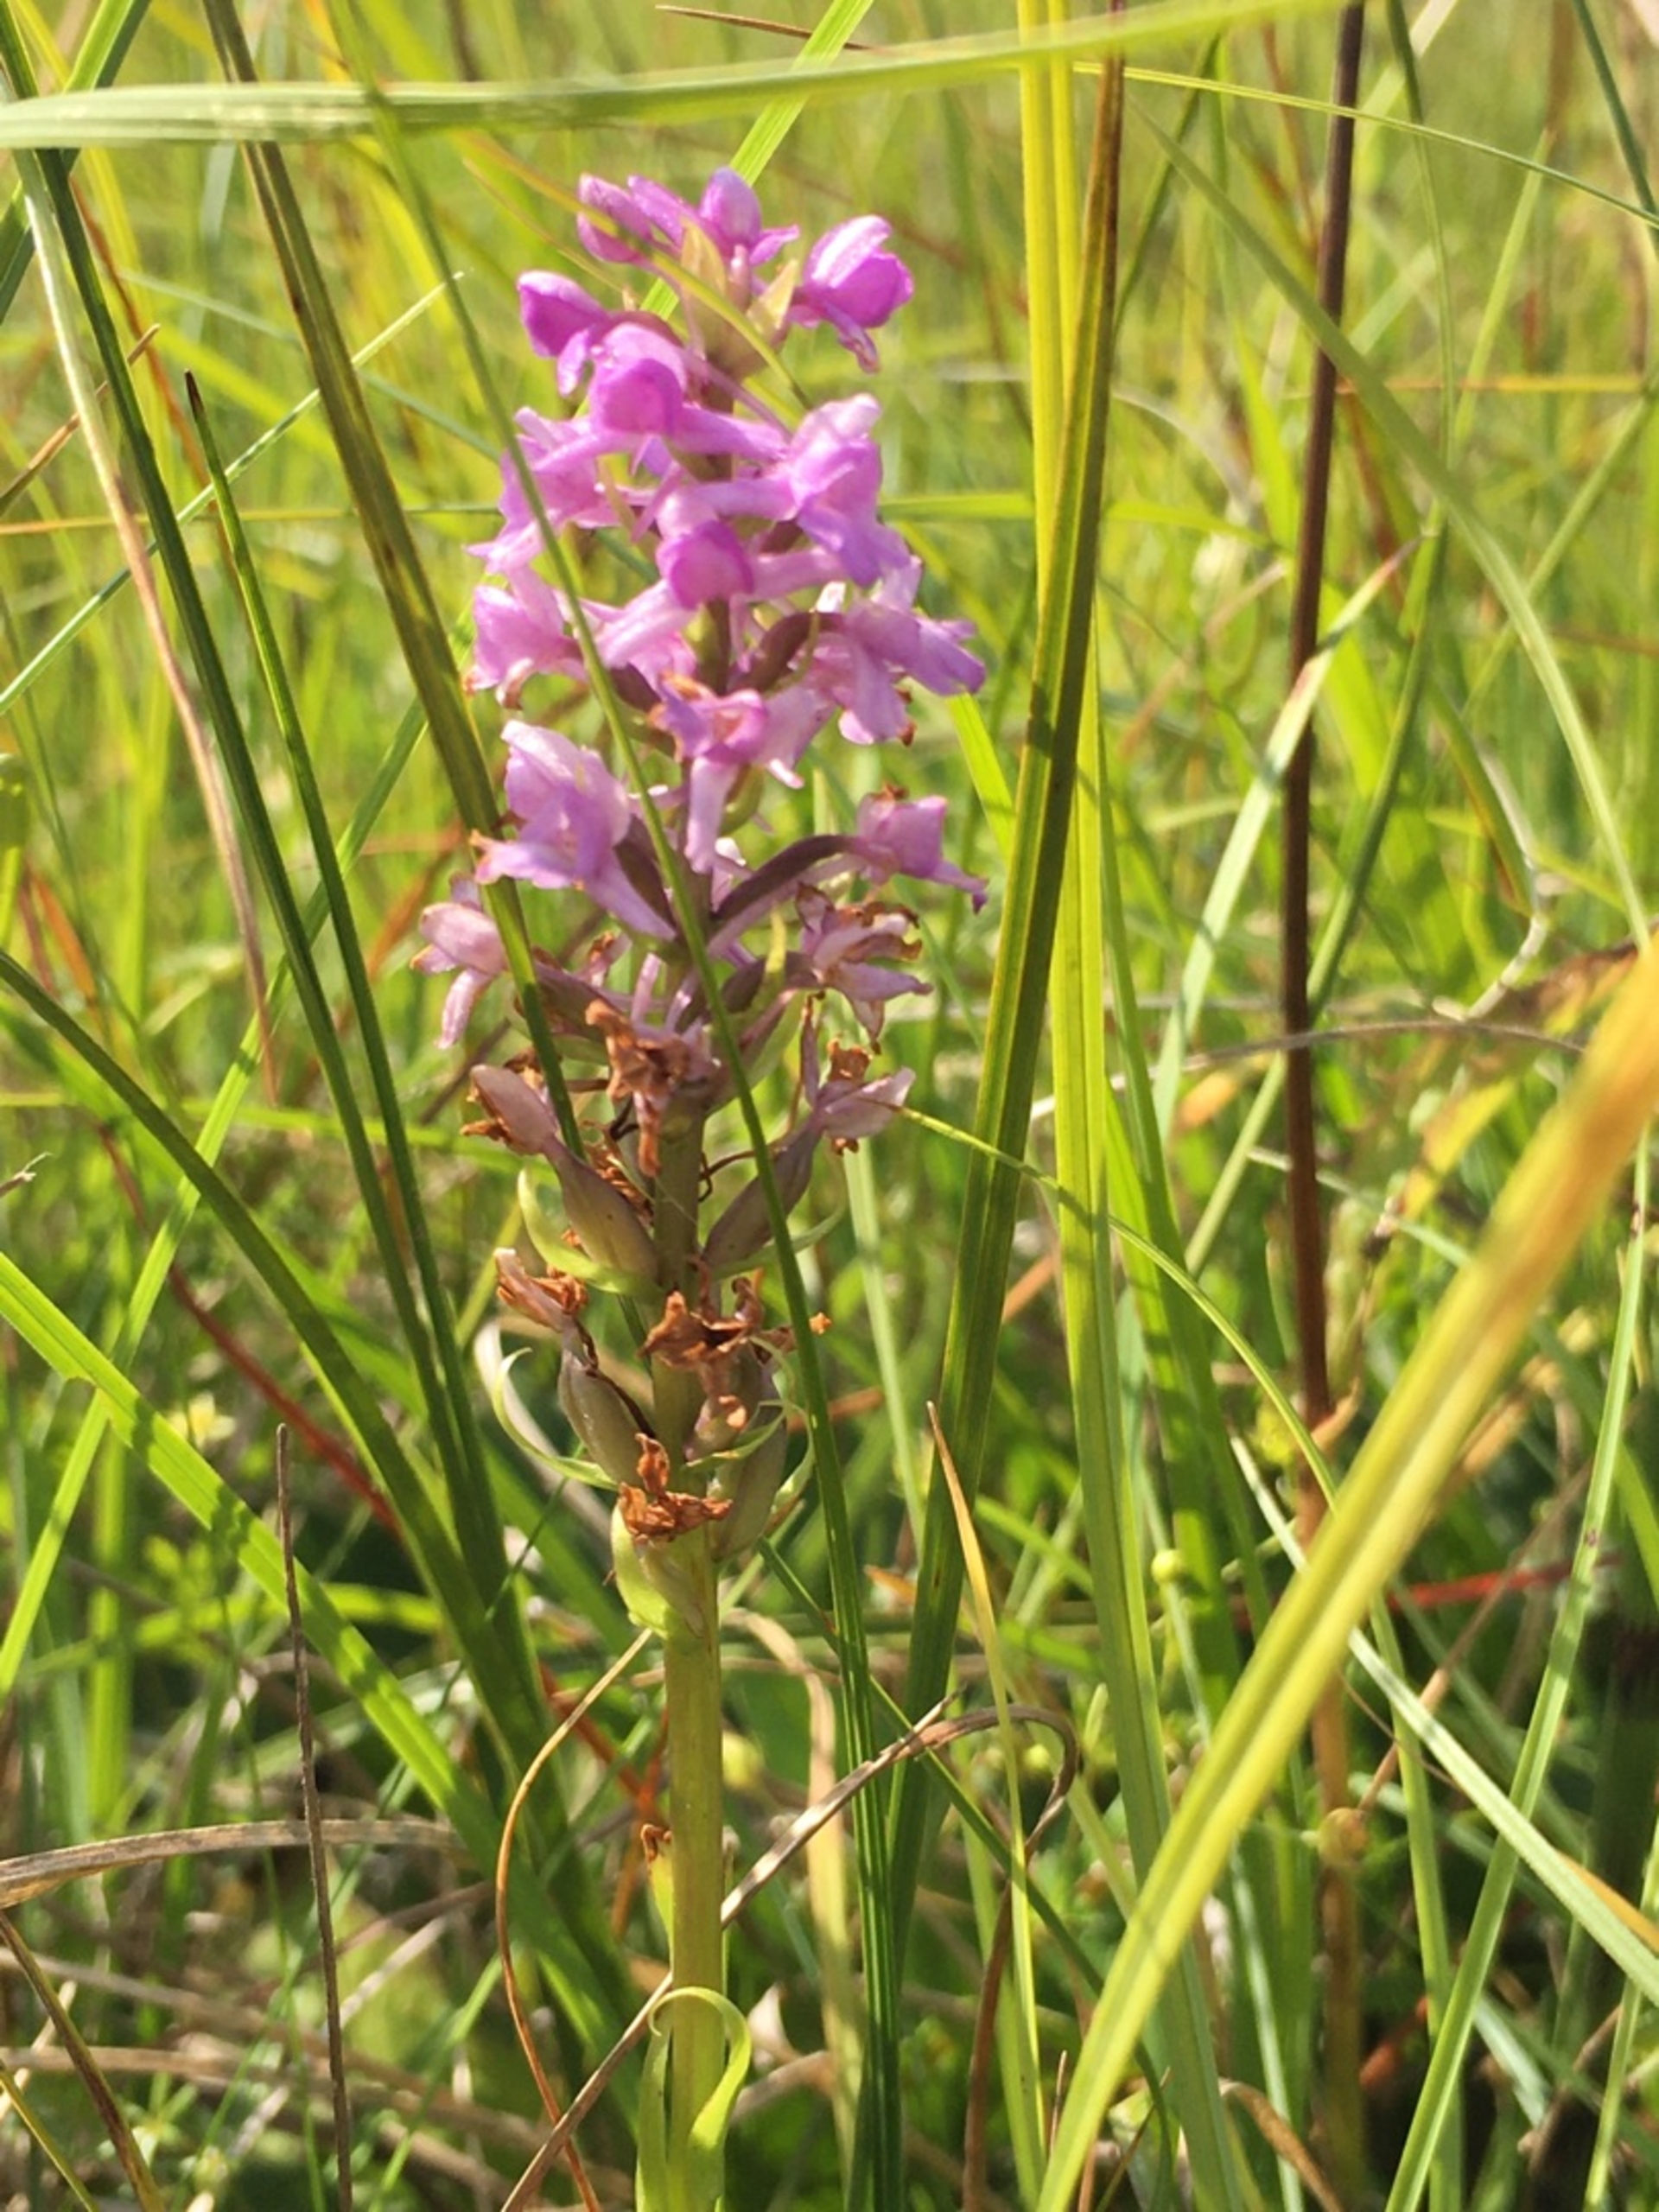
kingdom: Plantae
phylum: Tracheophyta
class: Liliopsida
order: Asparagales
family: Orchidaceae
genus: Gymnadenia
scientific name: Gymnadenia densiflora
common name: Tætblomstret trådspore
